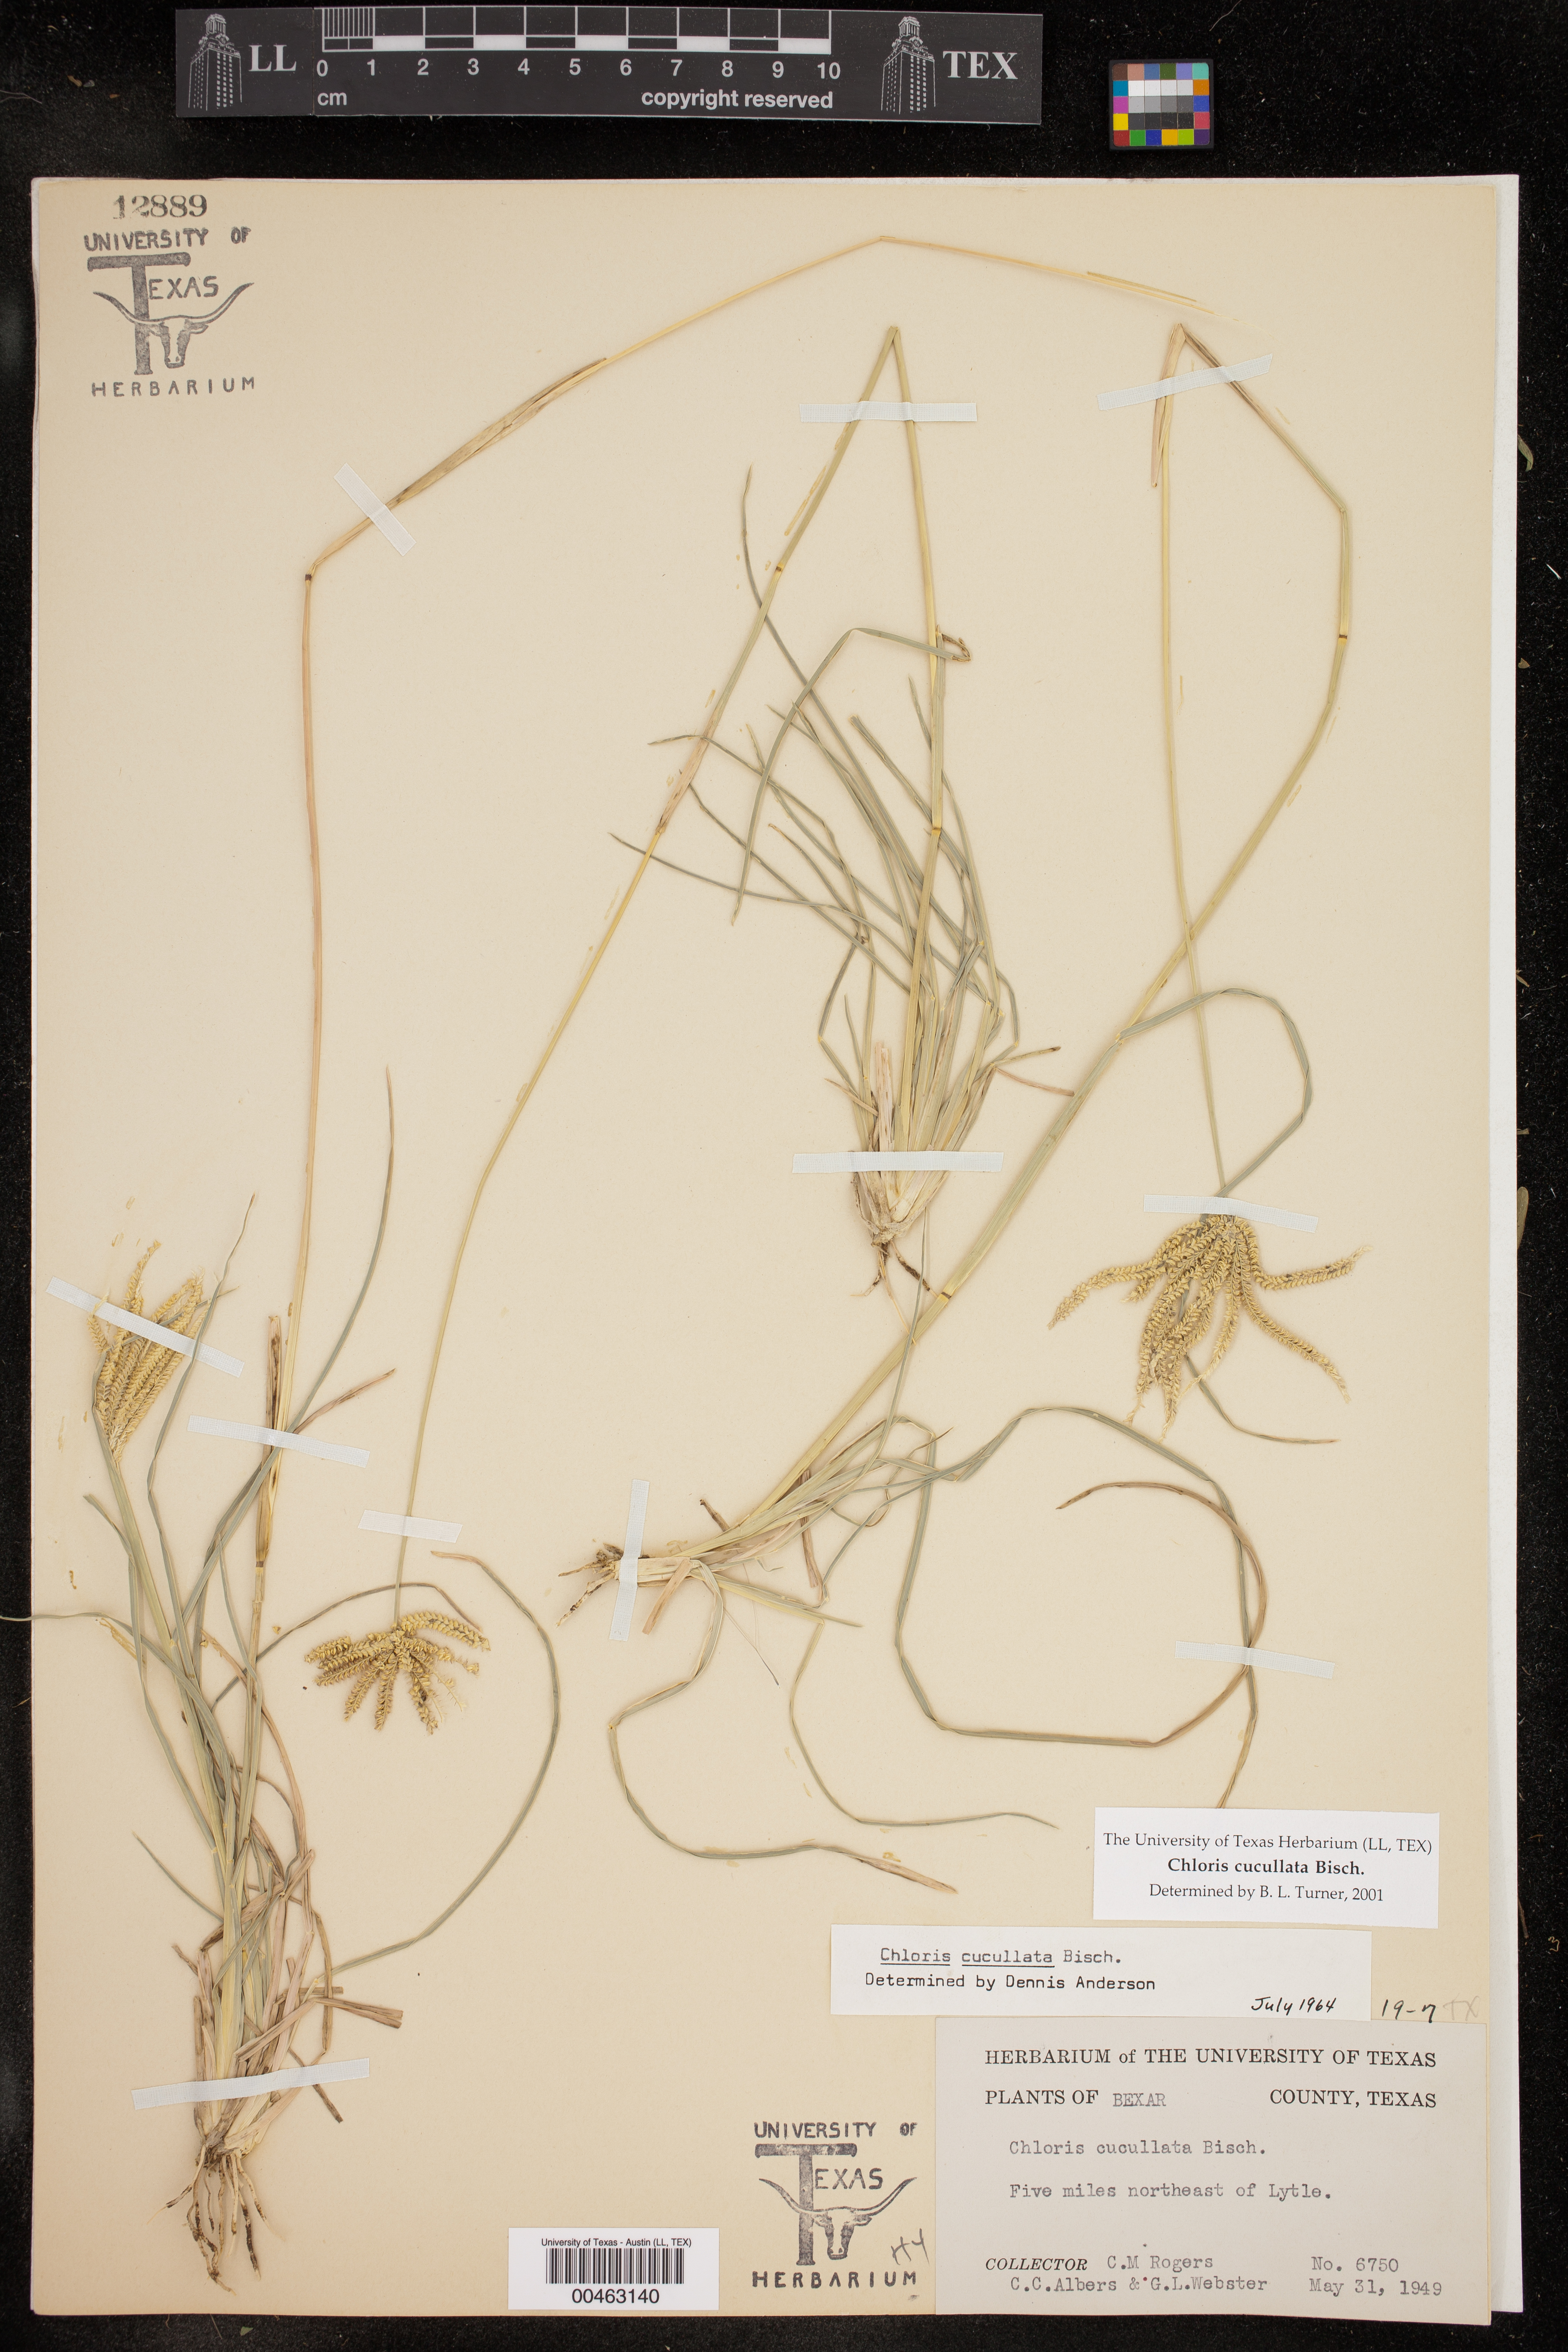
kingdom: Plantae
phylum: Tracheophyta
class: Liliopsida
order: Poales
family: Poaceae
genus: Chloris
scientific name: Chloris cucullata
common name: Hooded windmill grass
